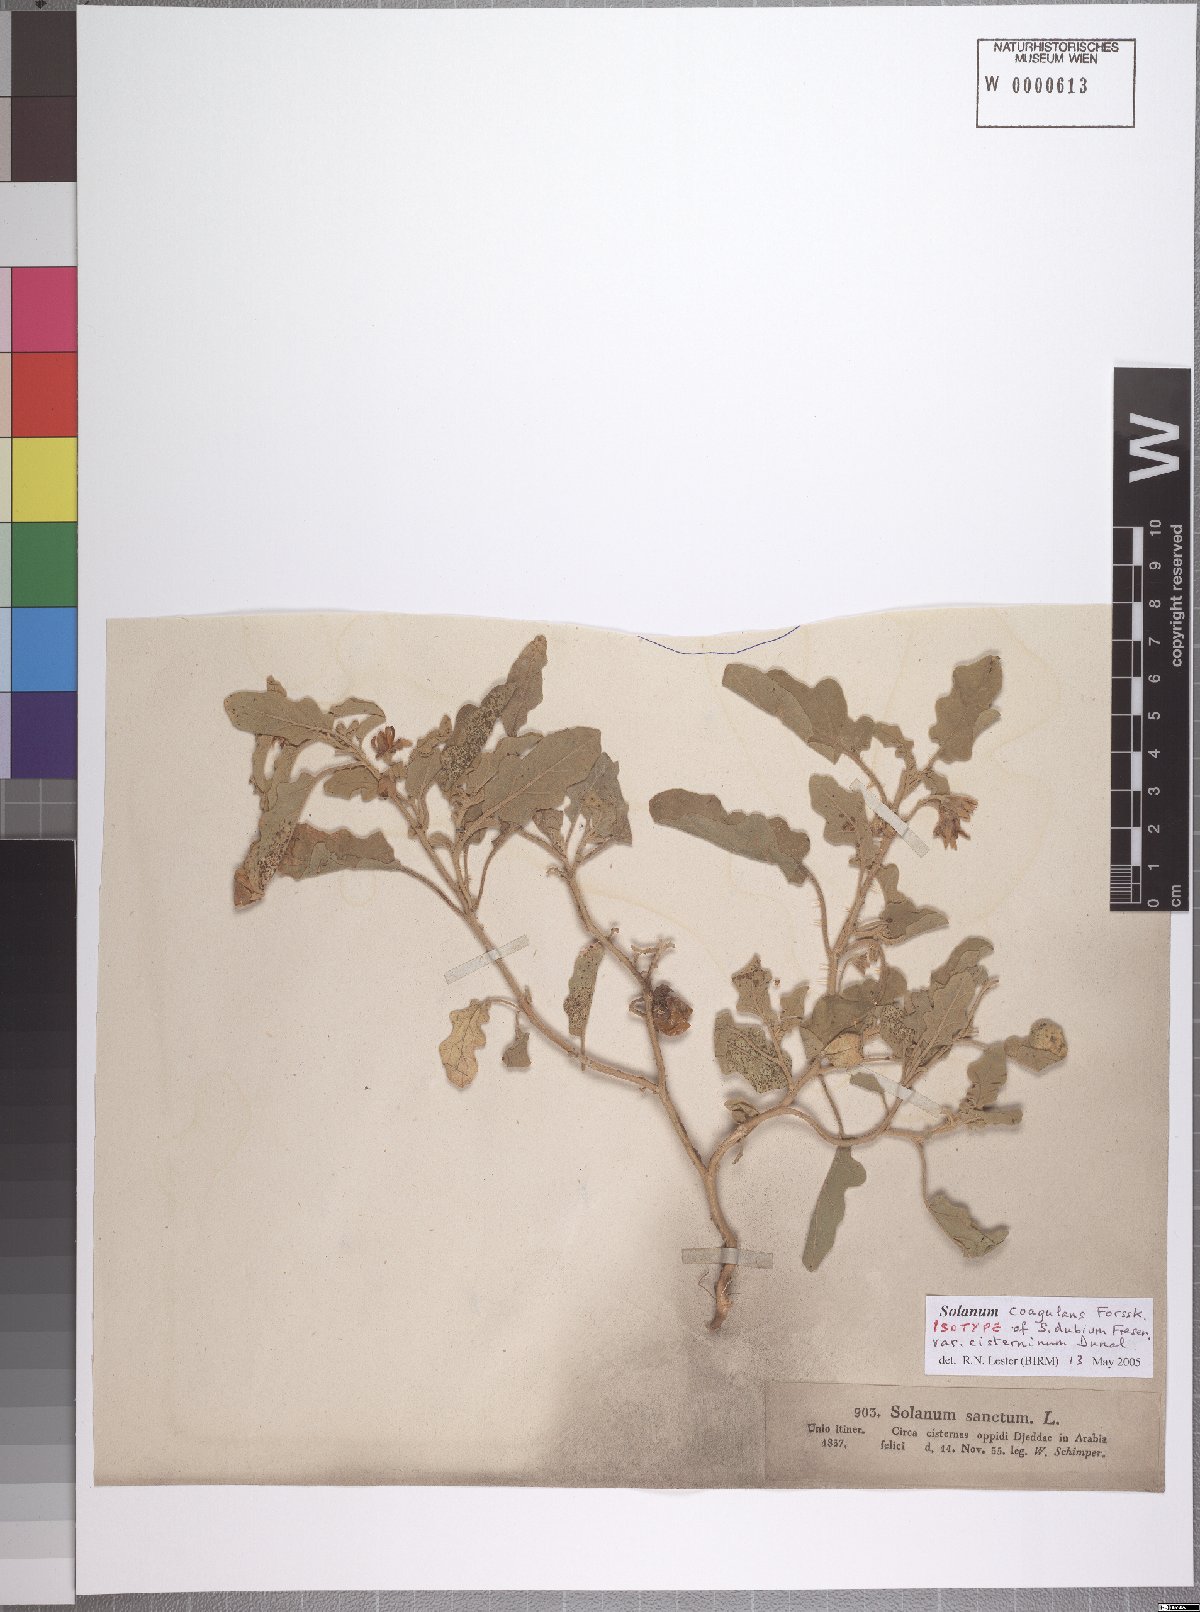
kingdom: Plantae
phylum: Tracheophyta
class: Magnoliopsida
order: Solanales
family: Solanaceae
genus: Solanum
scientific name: Solanum coagulans
